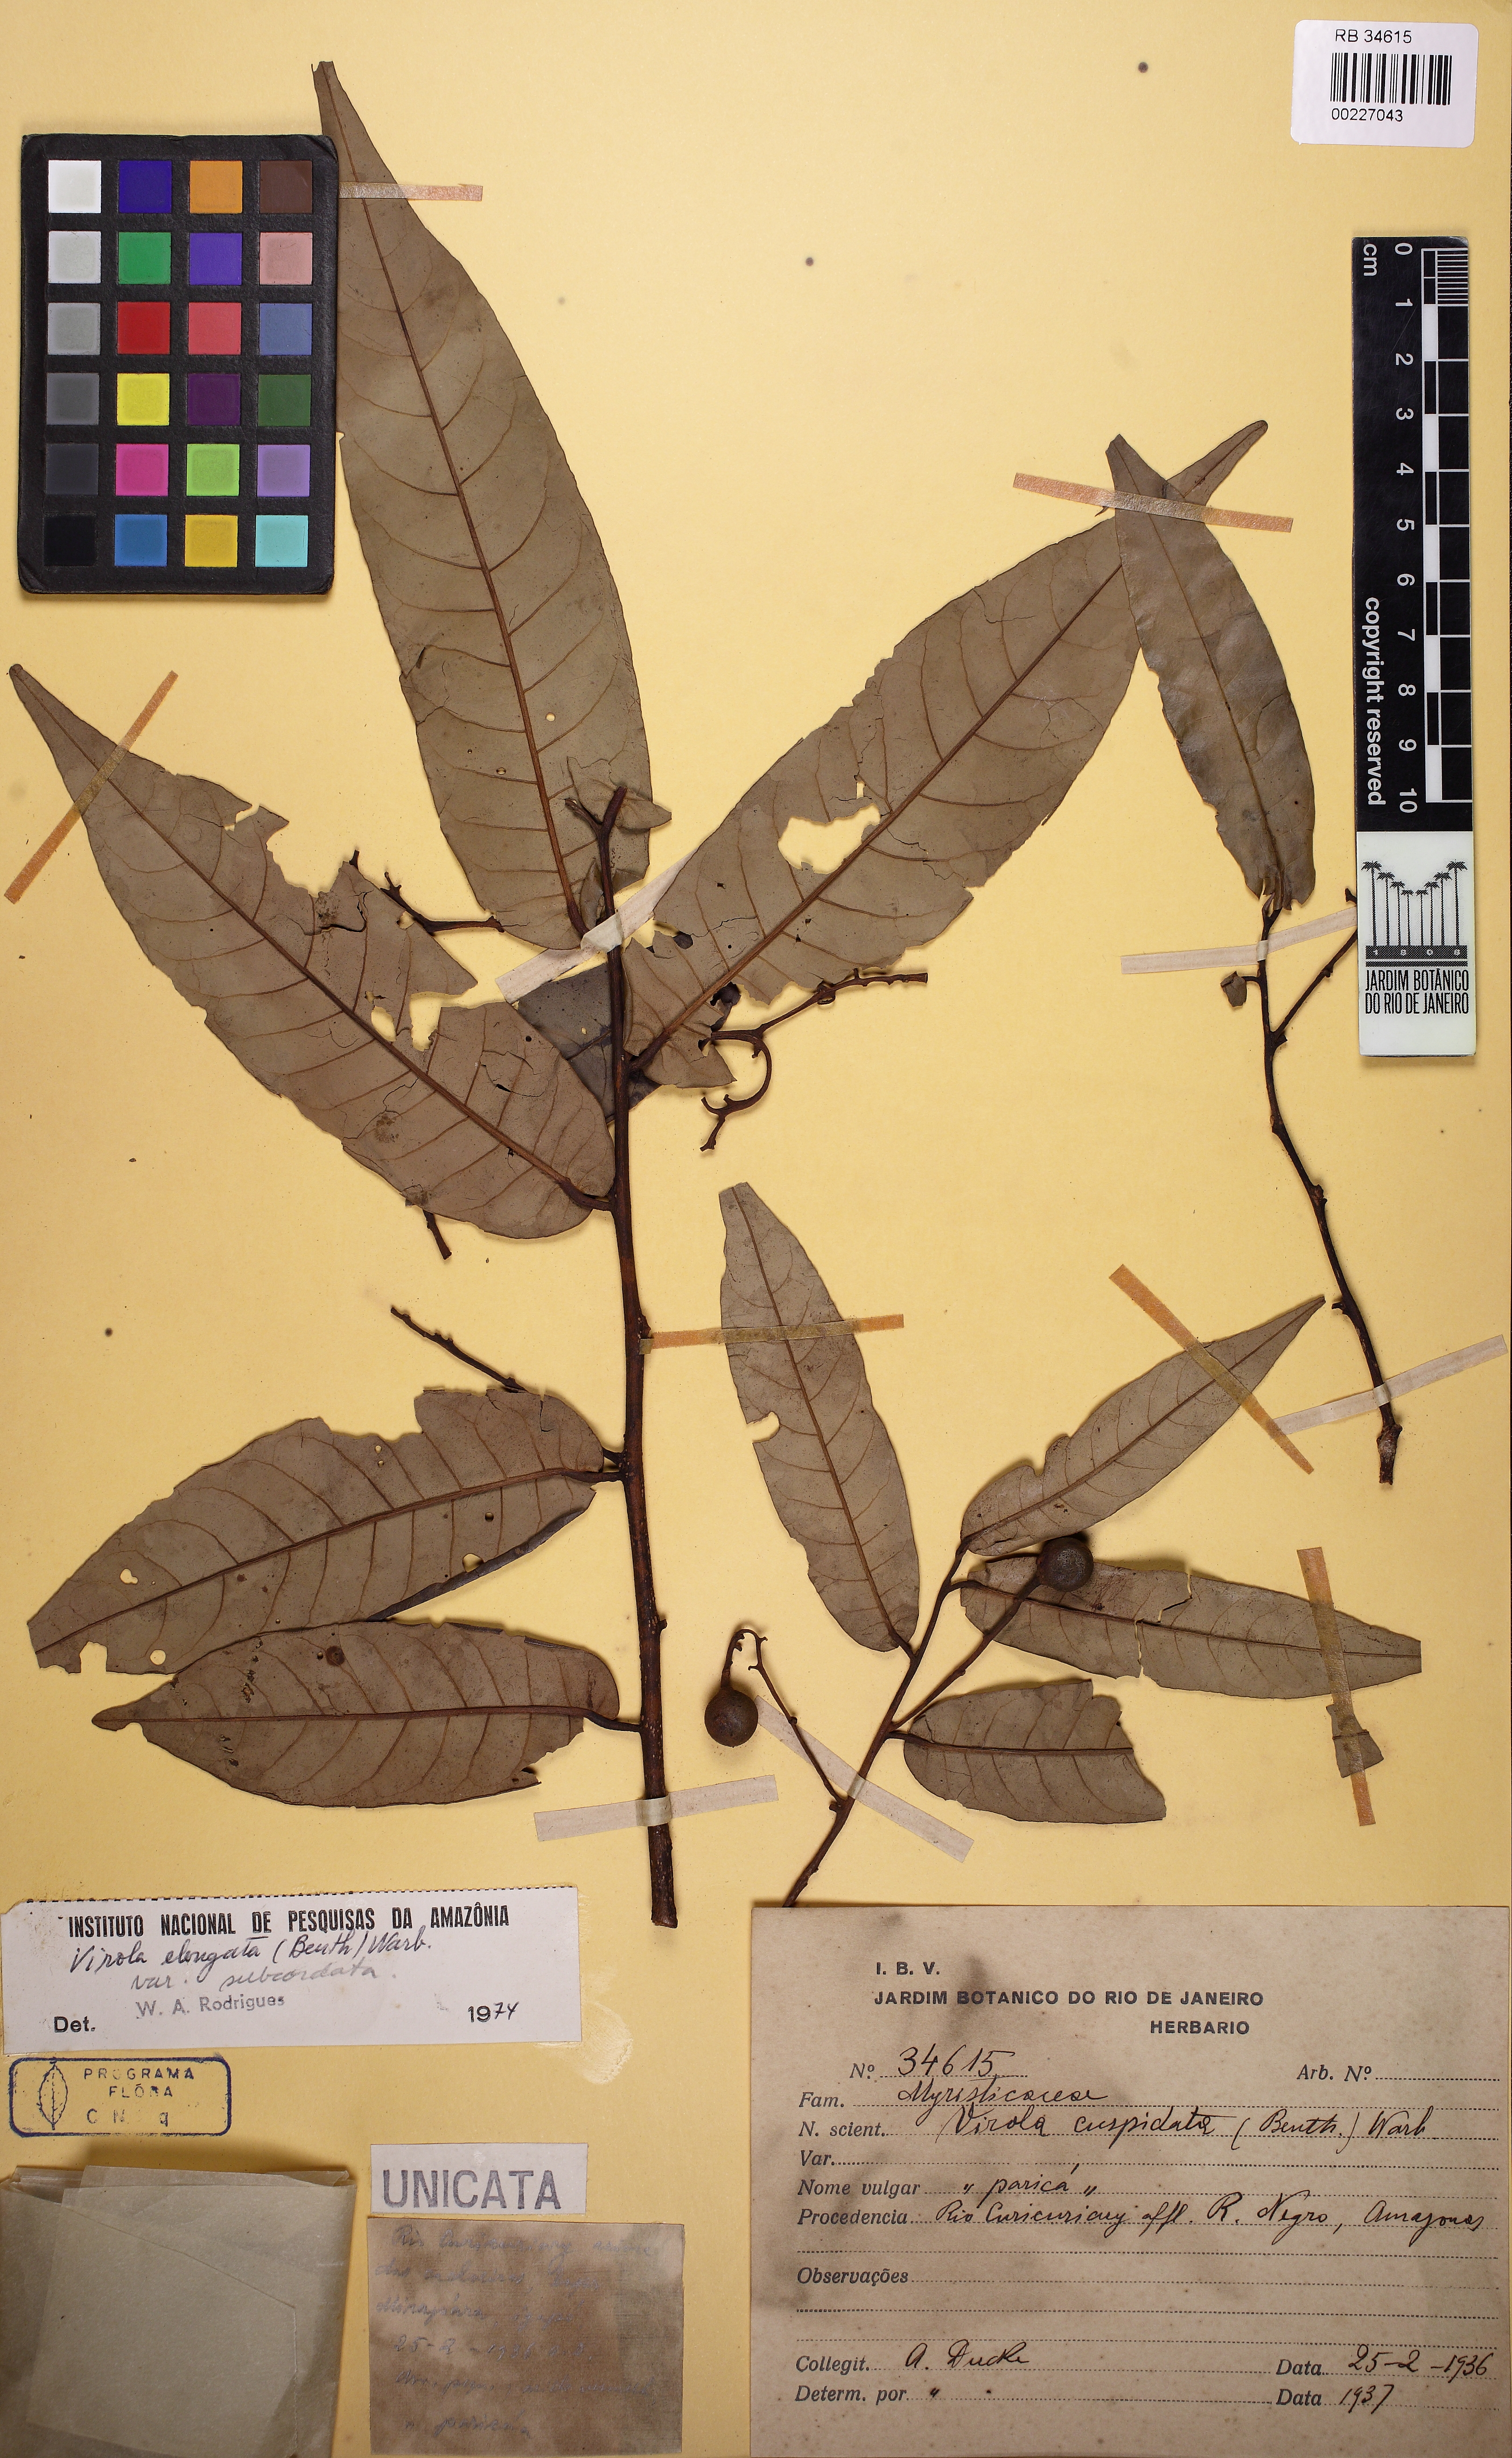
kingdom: Plantae
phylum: Tracheophyta
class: Magnoliopsida
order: Magnoliales
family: Myristicaceae
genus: Virola
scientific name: Virola elongata
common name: Sacred virola
